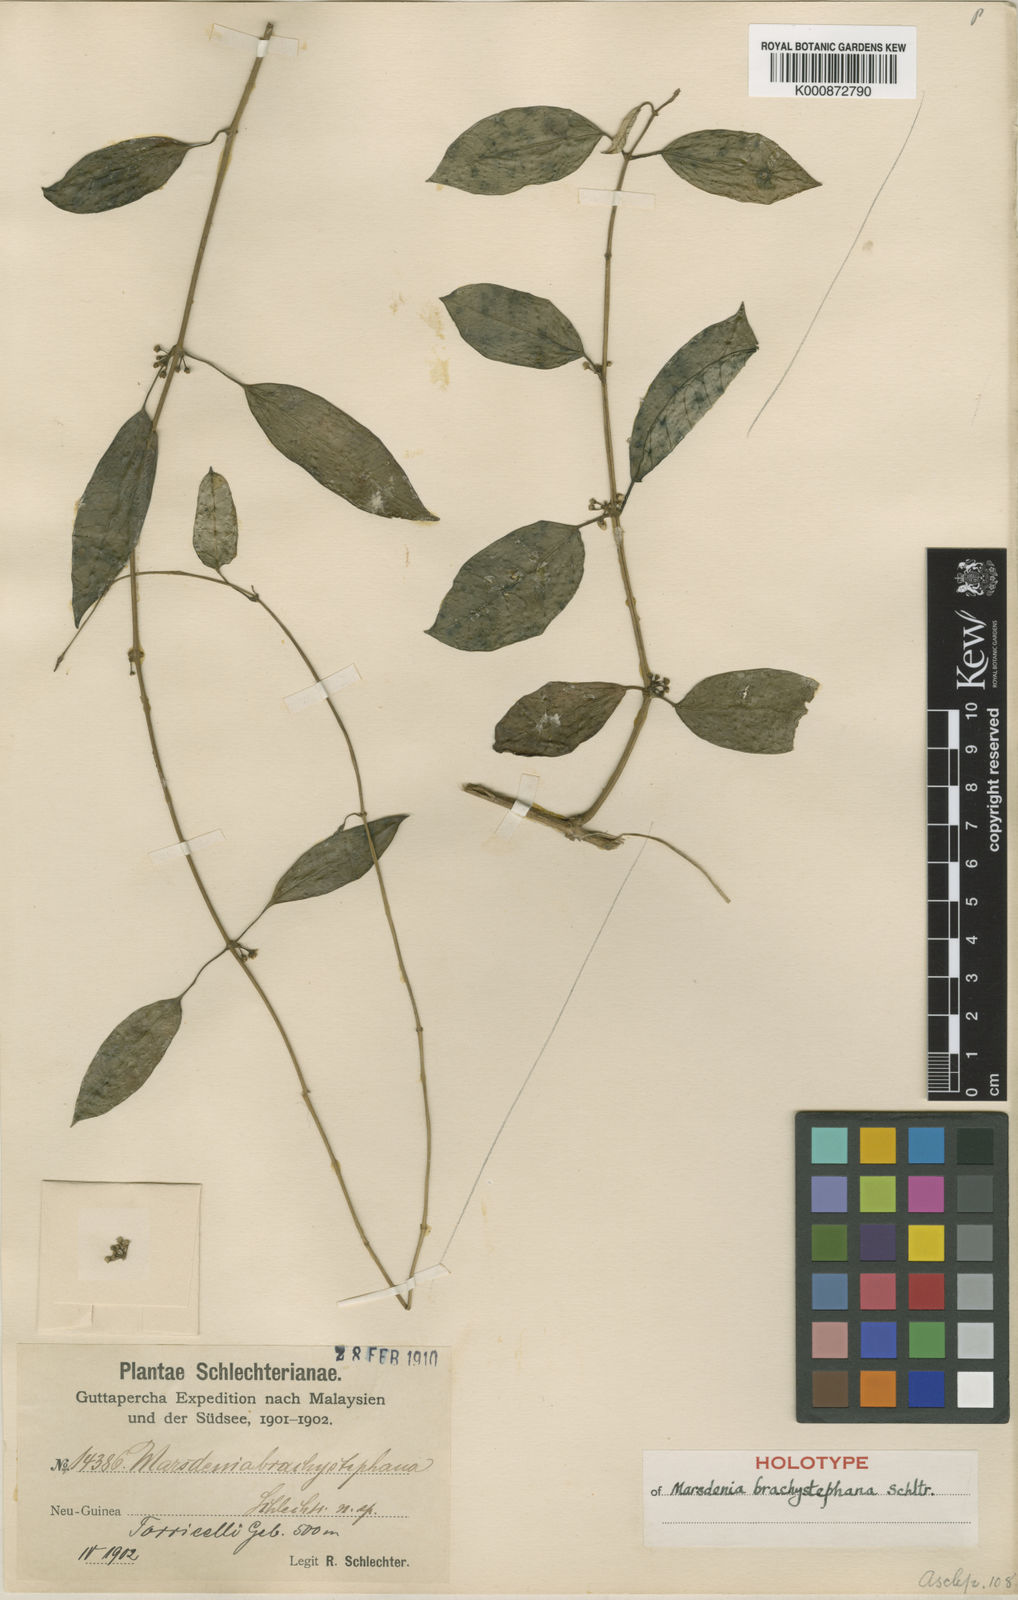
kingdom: Plantae
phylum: Tracheophyta
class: Magnoliopsida
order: Gentianales
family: Apocynaceae
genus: Sarcolobus
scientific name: Sarcolobus brachystephanus
